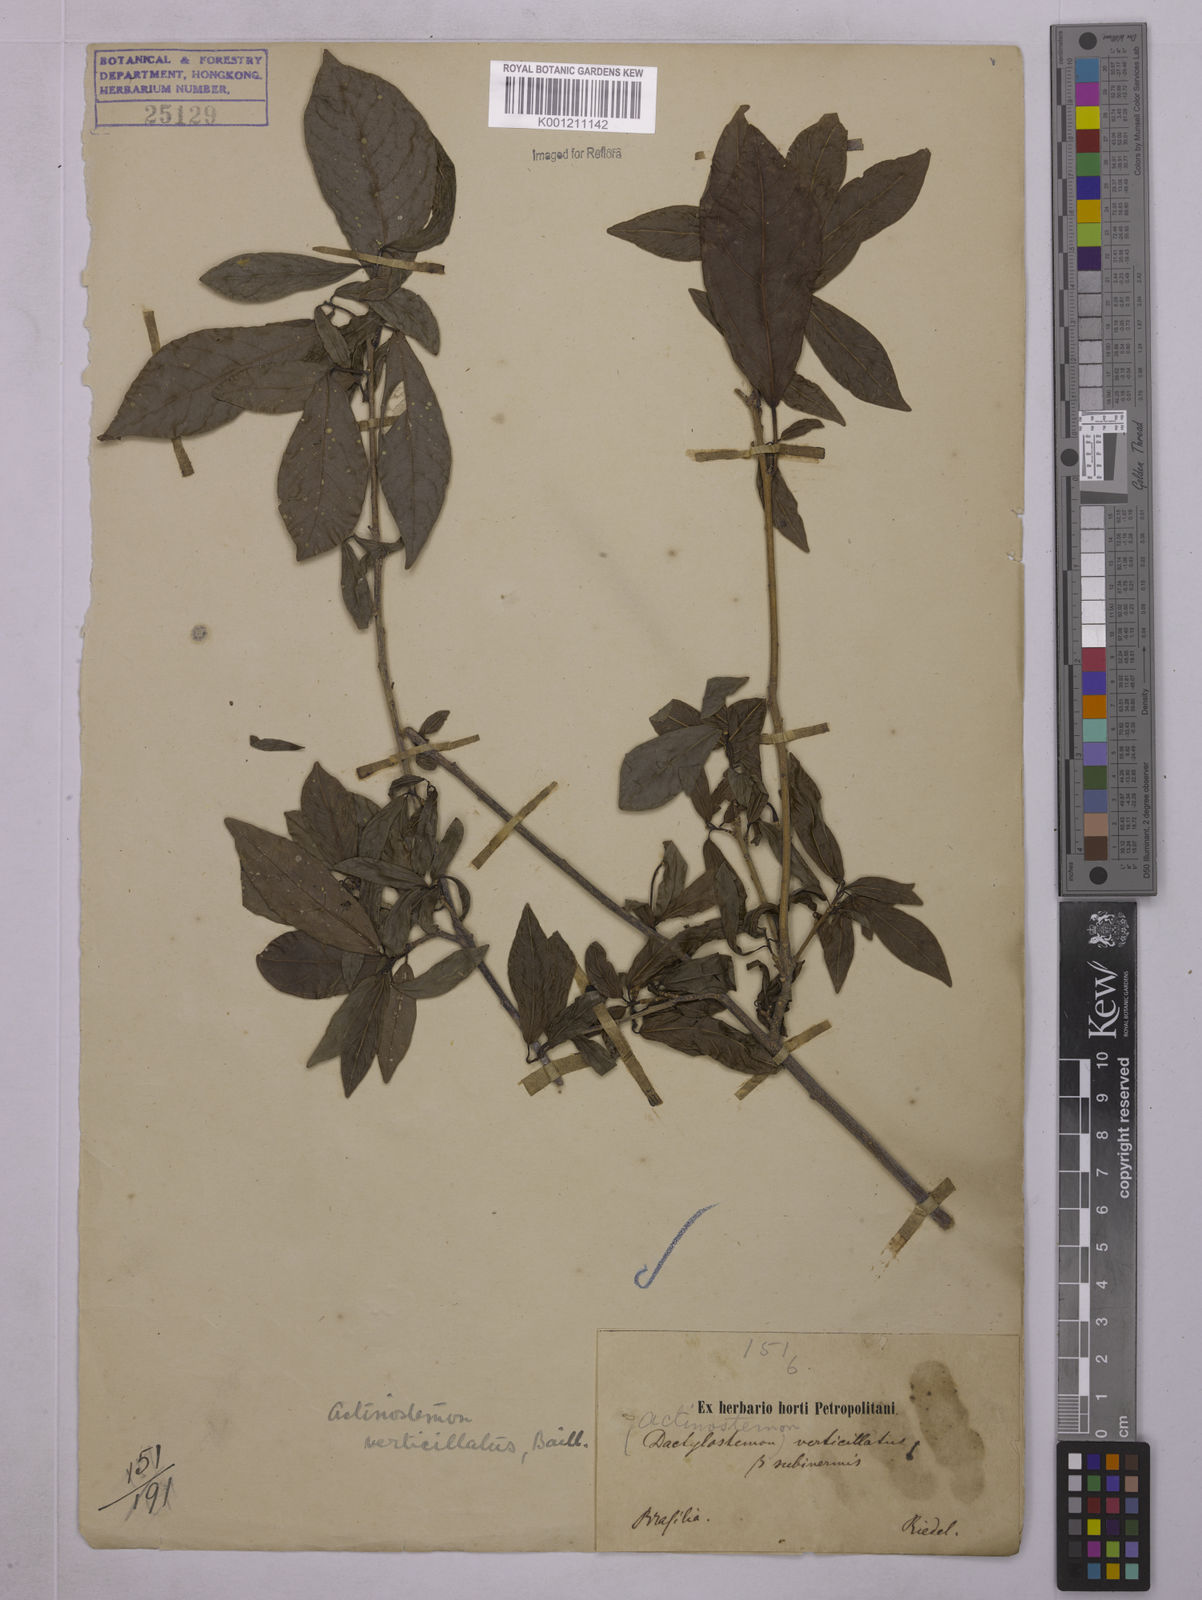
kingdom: Plantae
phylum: Tracheophyta
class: Magnoliopsida
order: Malpighiales
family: Euphorbiaceae
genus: Actinostemon
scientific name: Actinostemon verticillatus
